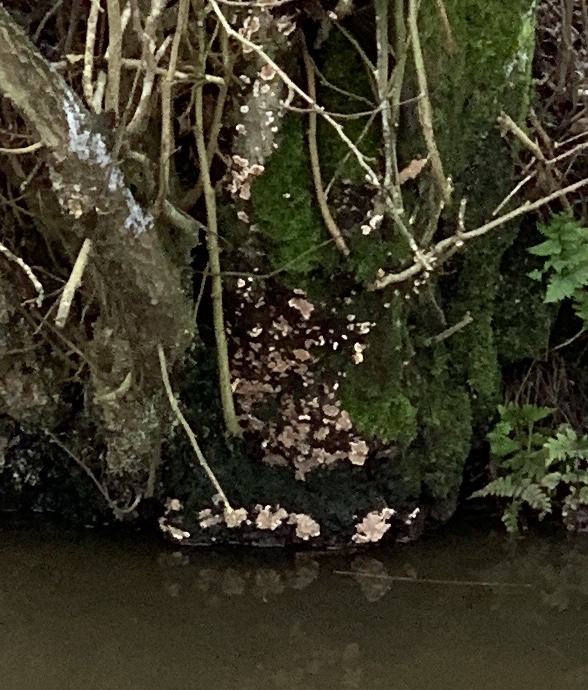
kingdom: Fungi
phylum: Basidiomycota
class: Agaricomycetes
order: Russulales
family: Stereaceae
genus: Stereum
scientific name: Stereum rugosum
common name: rynket lædersvamp
